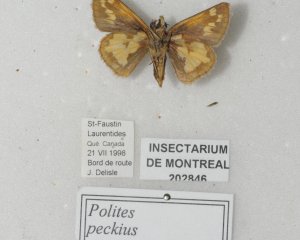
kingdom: Animalia
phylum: Arthropoda
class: Insecta
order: Lepidoptera
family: Hesperiidae
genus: Polites
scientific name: Polites coras
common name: Peck's Skipper
